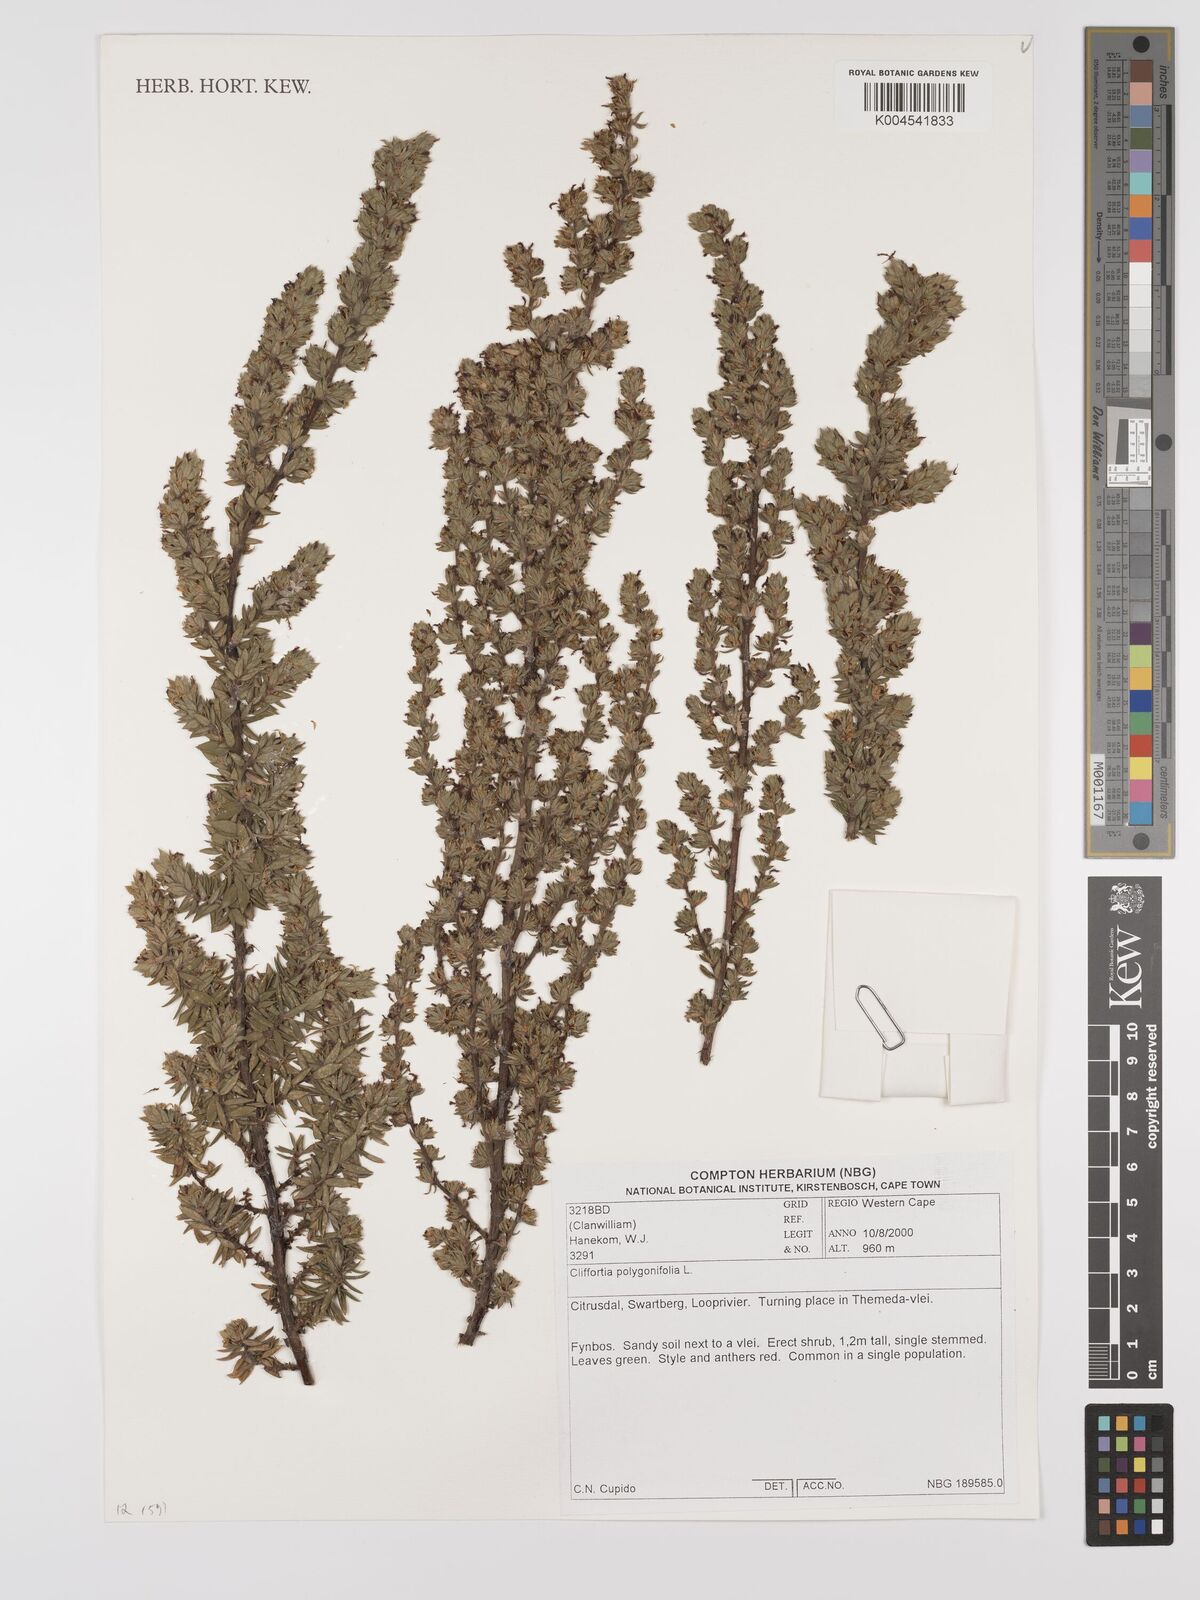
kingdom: Plantae
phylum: Tracheophyta
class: Magnoliopsida
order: Rosales
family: Rosaceae
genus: Cliffortia
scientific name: Cliffortia polygonifolia
